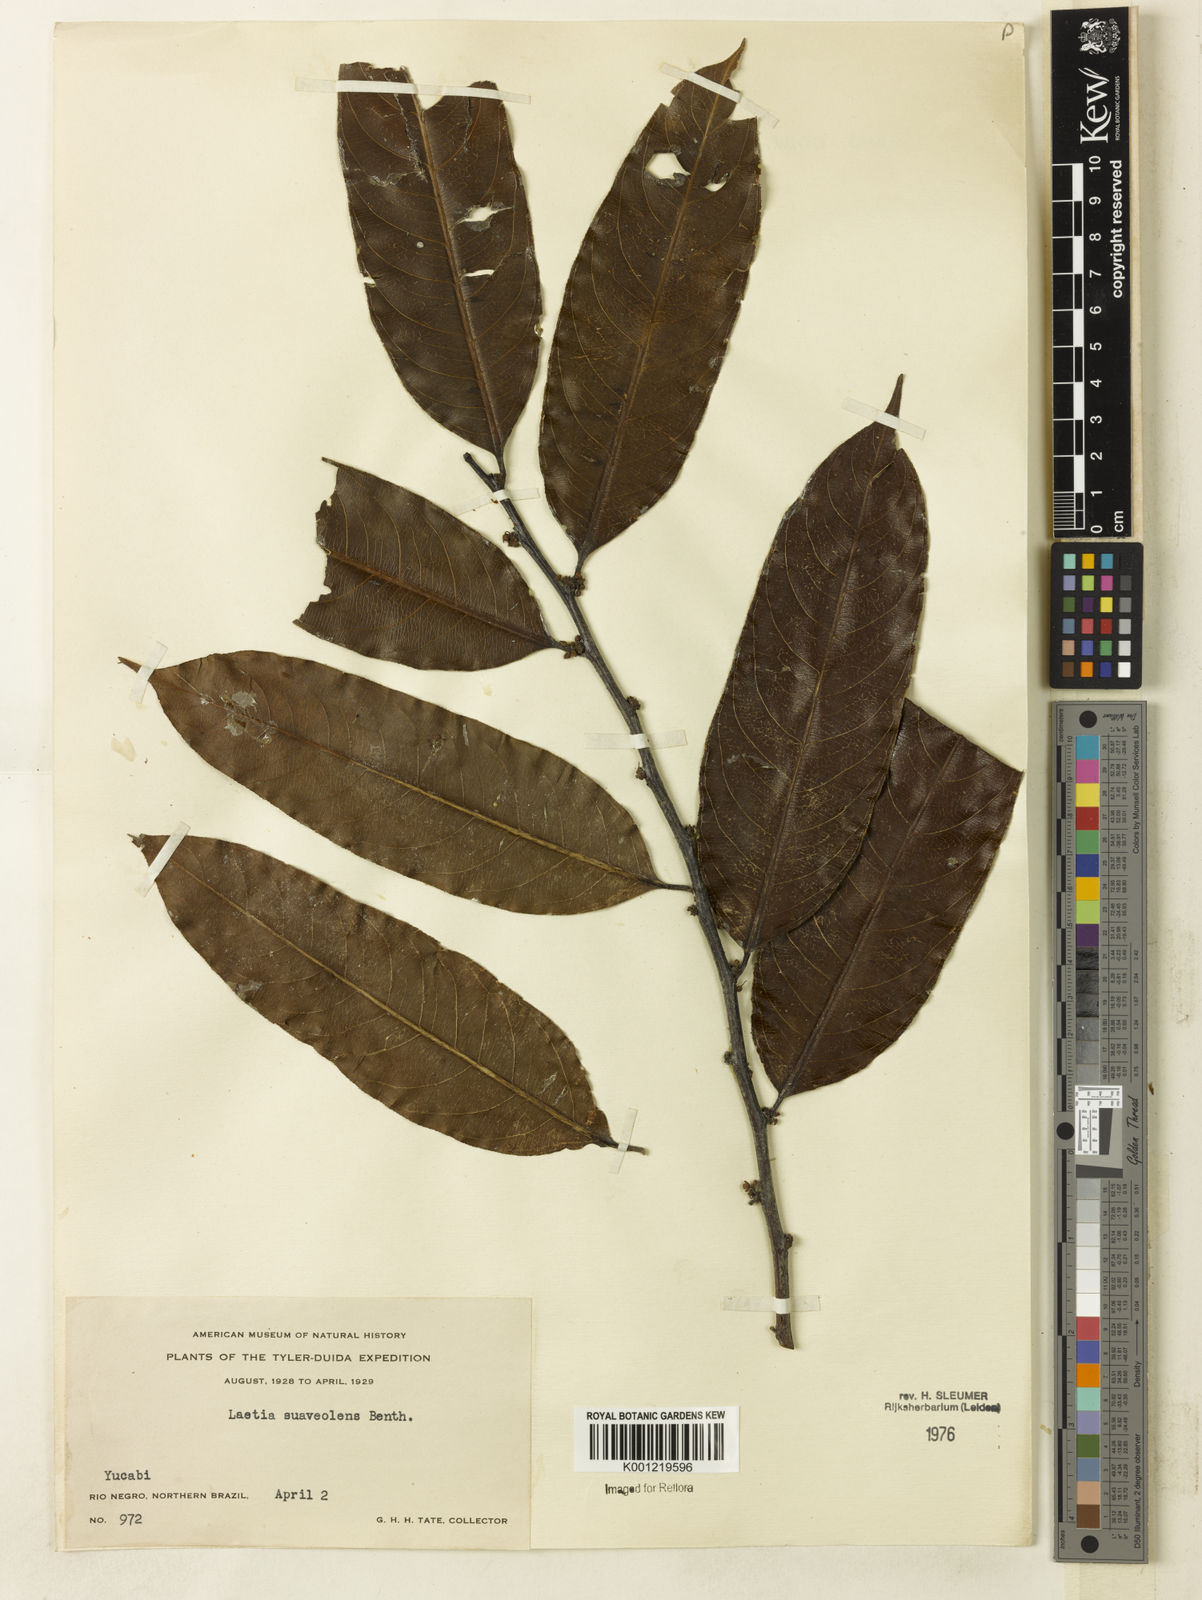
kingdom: Plantae
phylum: Tracheophyta
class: Magnoliopsida
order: Malpighiales
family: Salicaceae
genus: Casearia
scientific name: Casearia suaveolens
